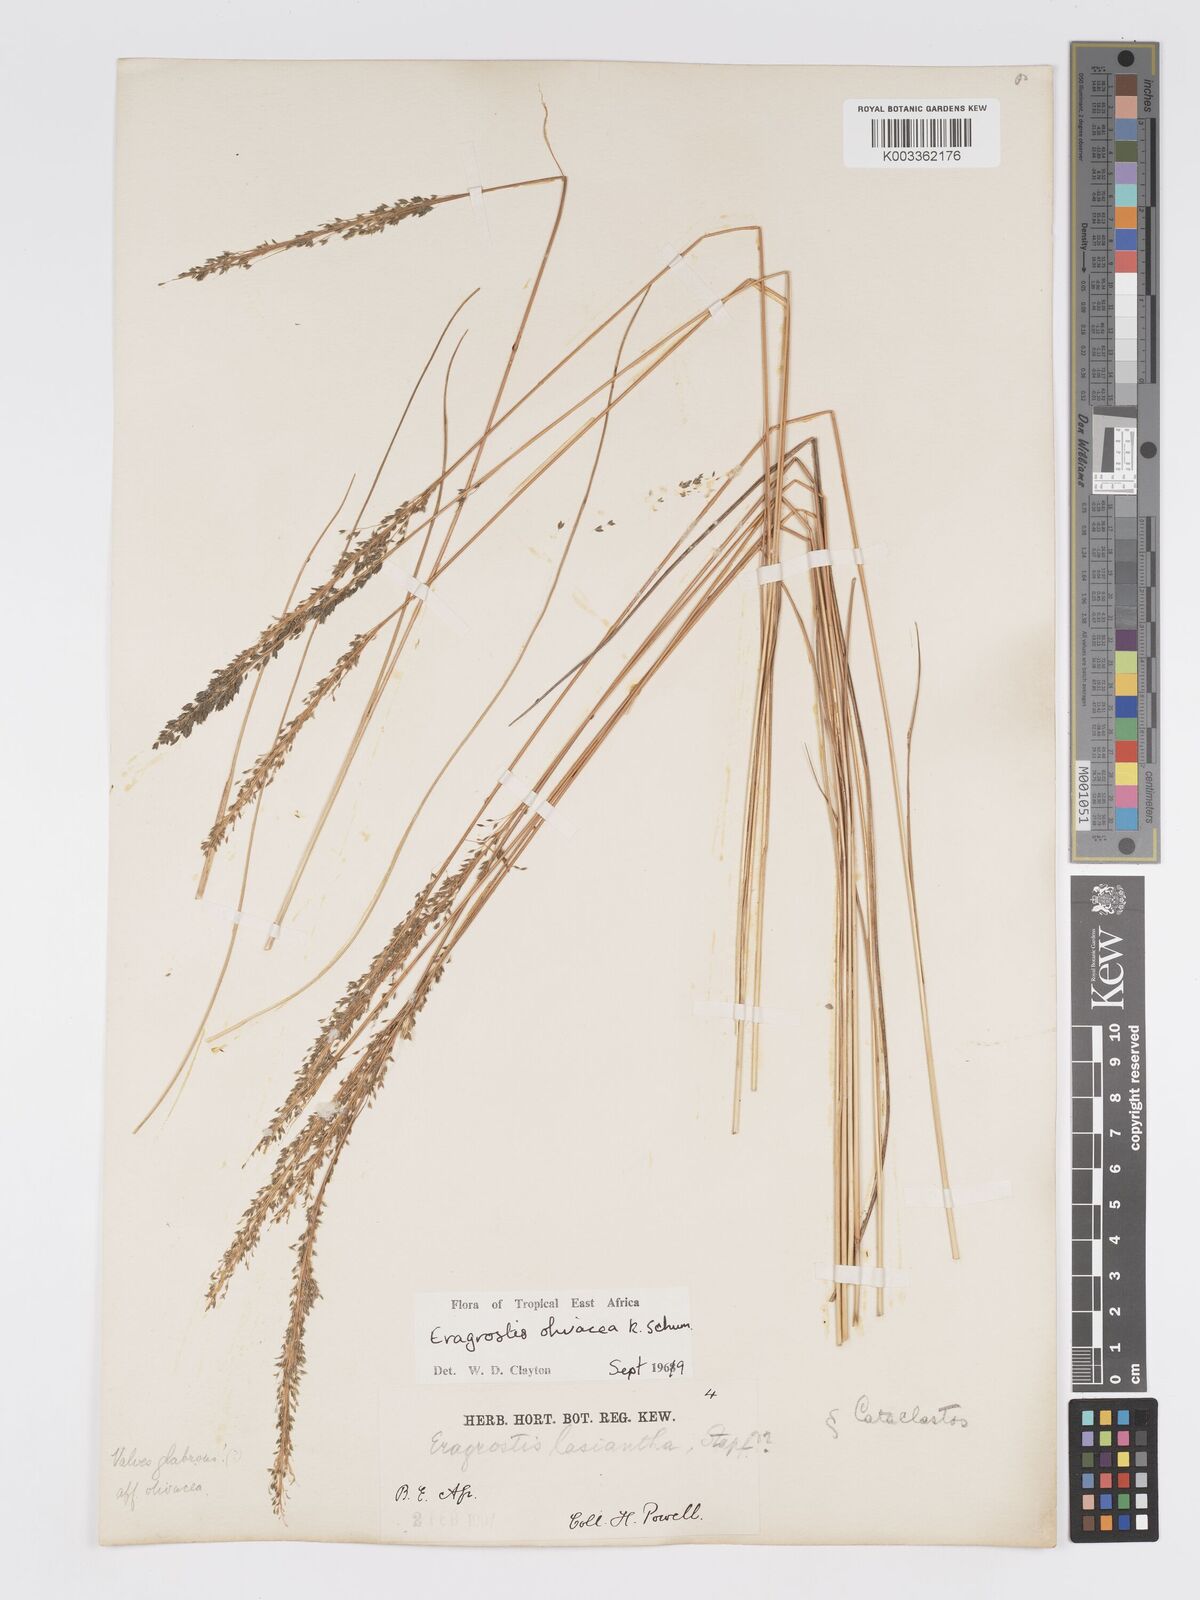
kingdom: Plantae
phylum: Tracheophyta
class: Liliopsida
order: Poales
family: Poaceae
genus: Eragrostis
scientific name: Eragrostis olivacea
